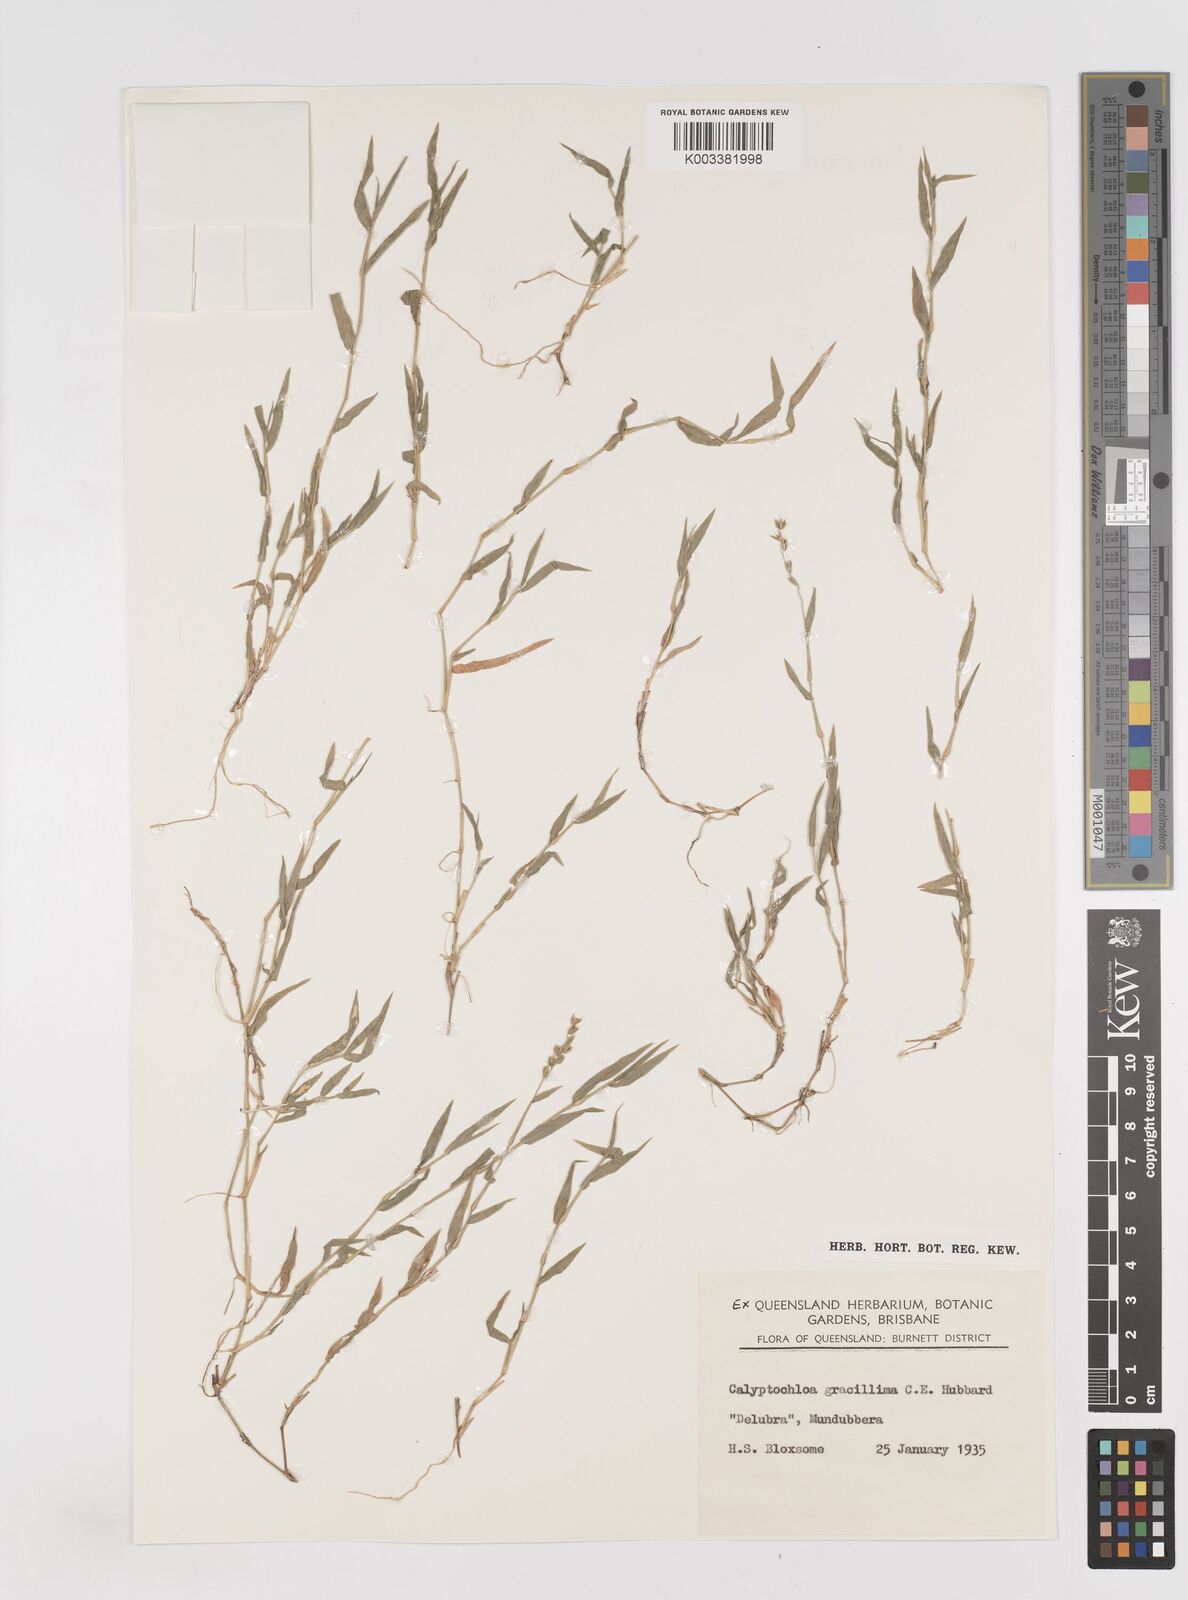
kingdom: Plantae
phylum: Tracheophyta
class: Liliopsida
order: Poales
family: Poaceae
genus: Calyptochloa
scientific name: Calyptochloa gracillima
